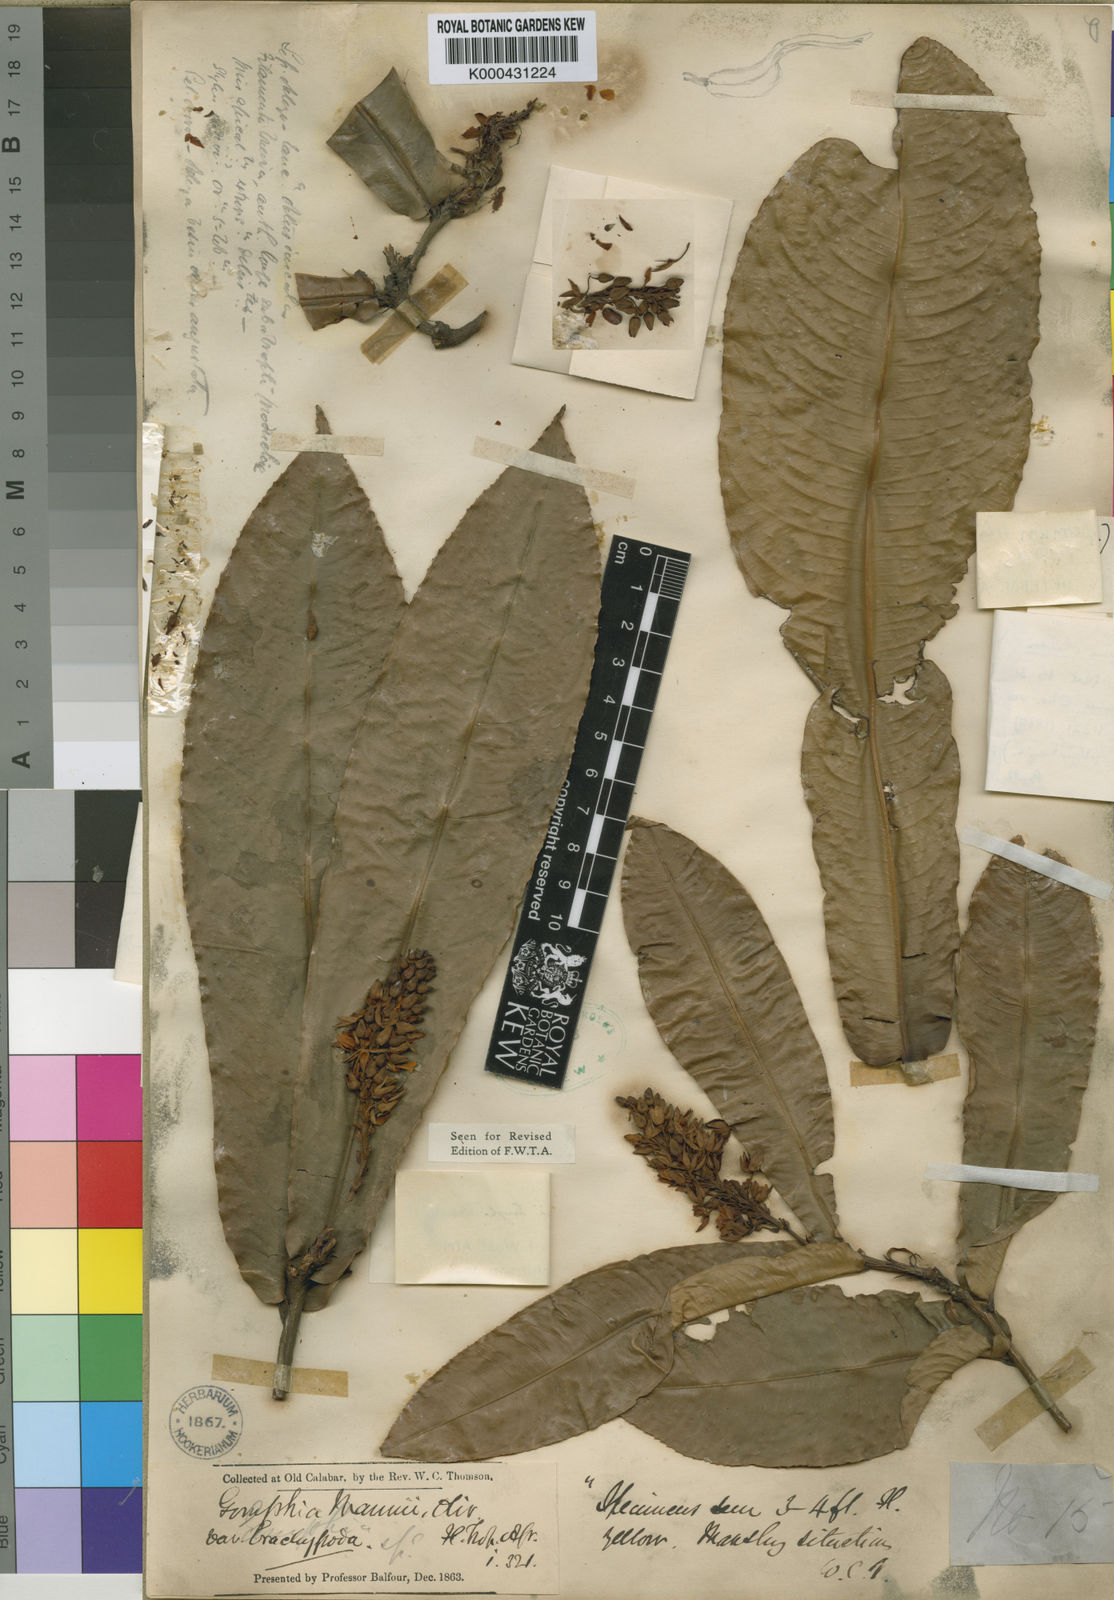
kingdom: Plantae
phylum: Tracheophyta
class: Magnoliopsida
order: Malpighiales
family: Ochnaceae
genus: Campylospermum
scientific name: Campylospermum oliveri
